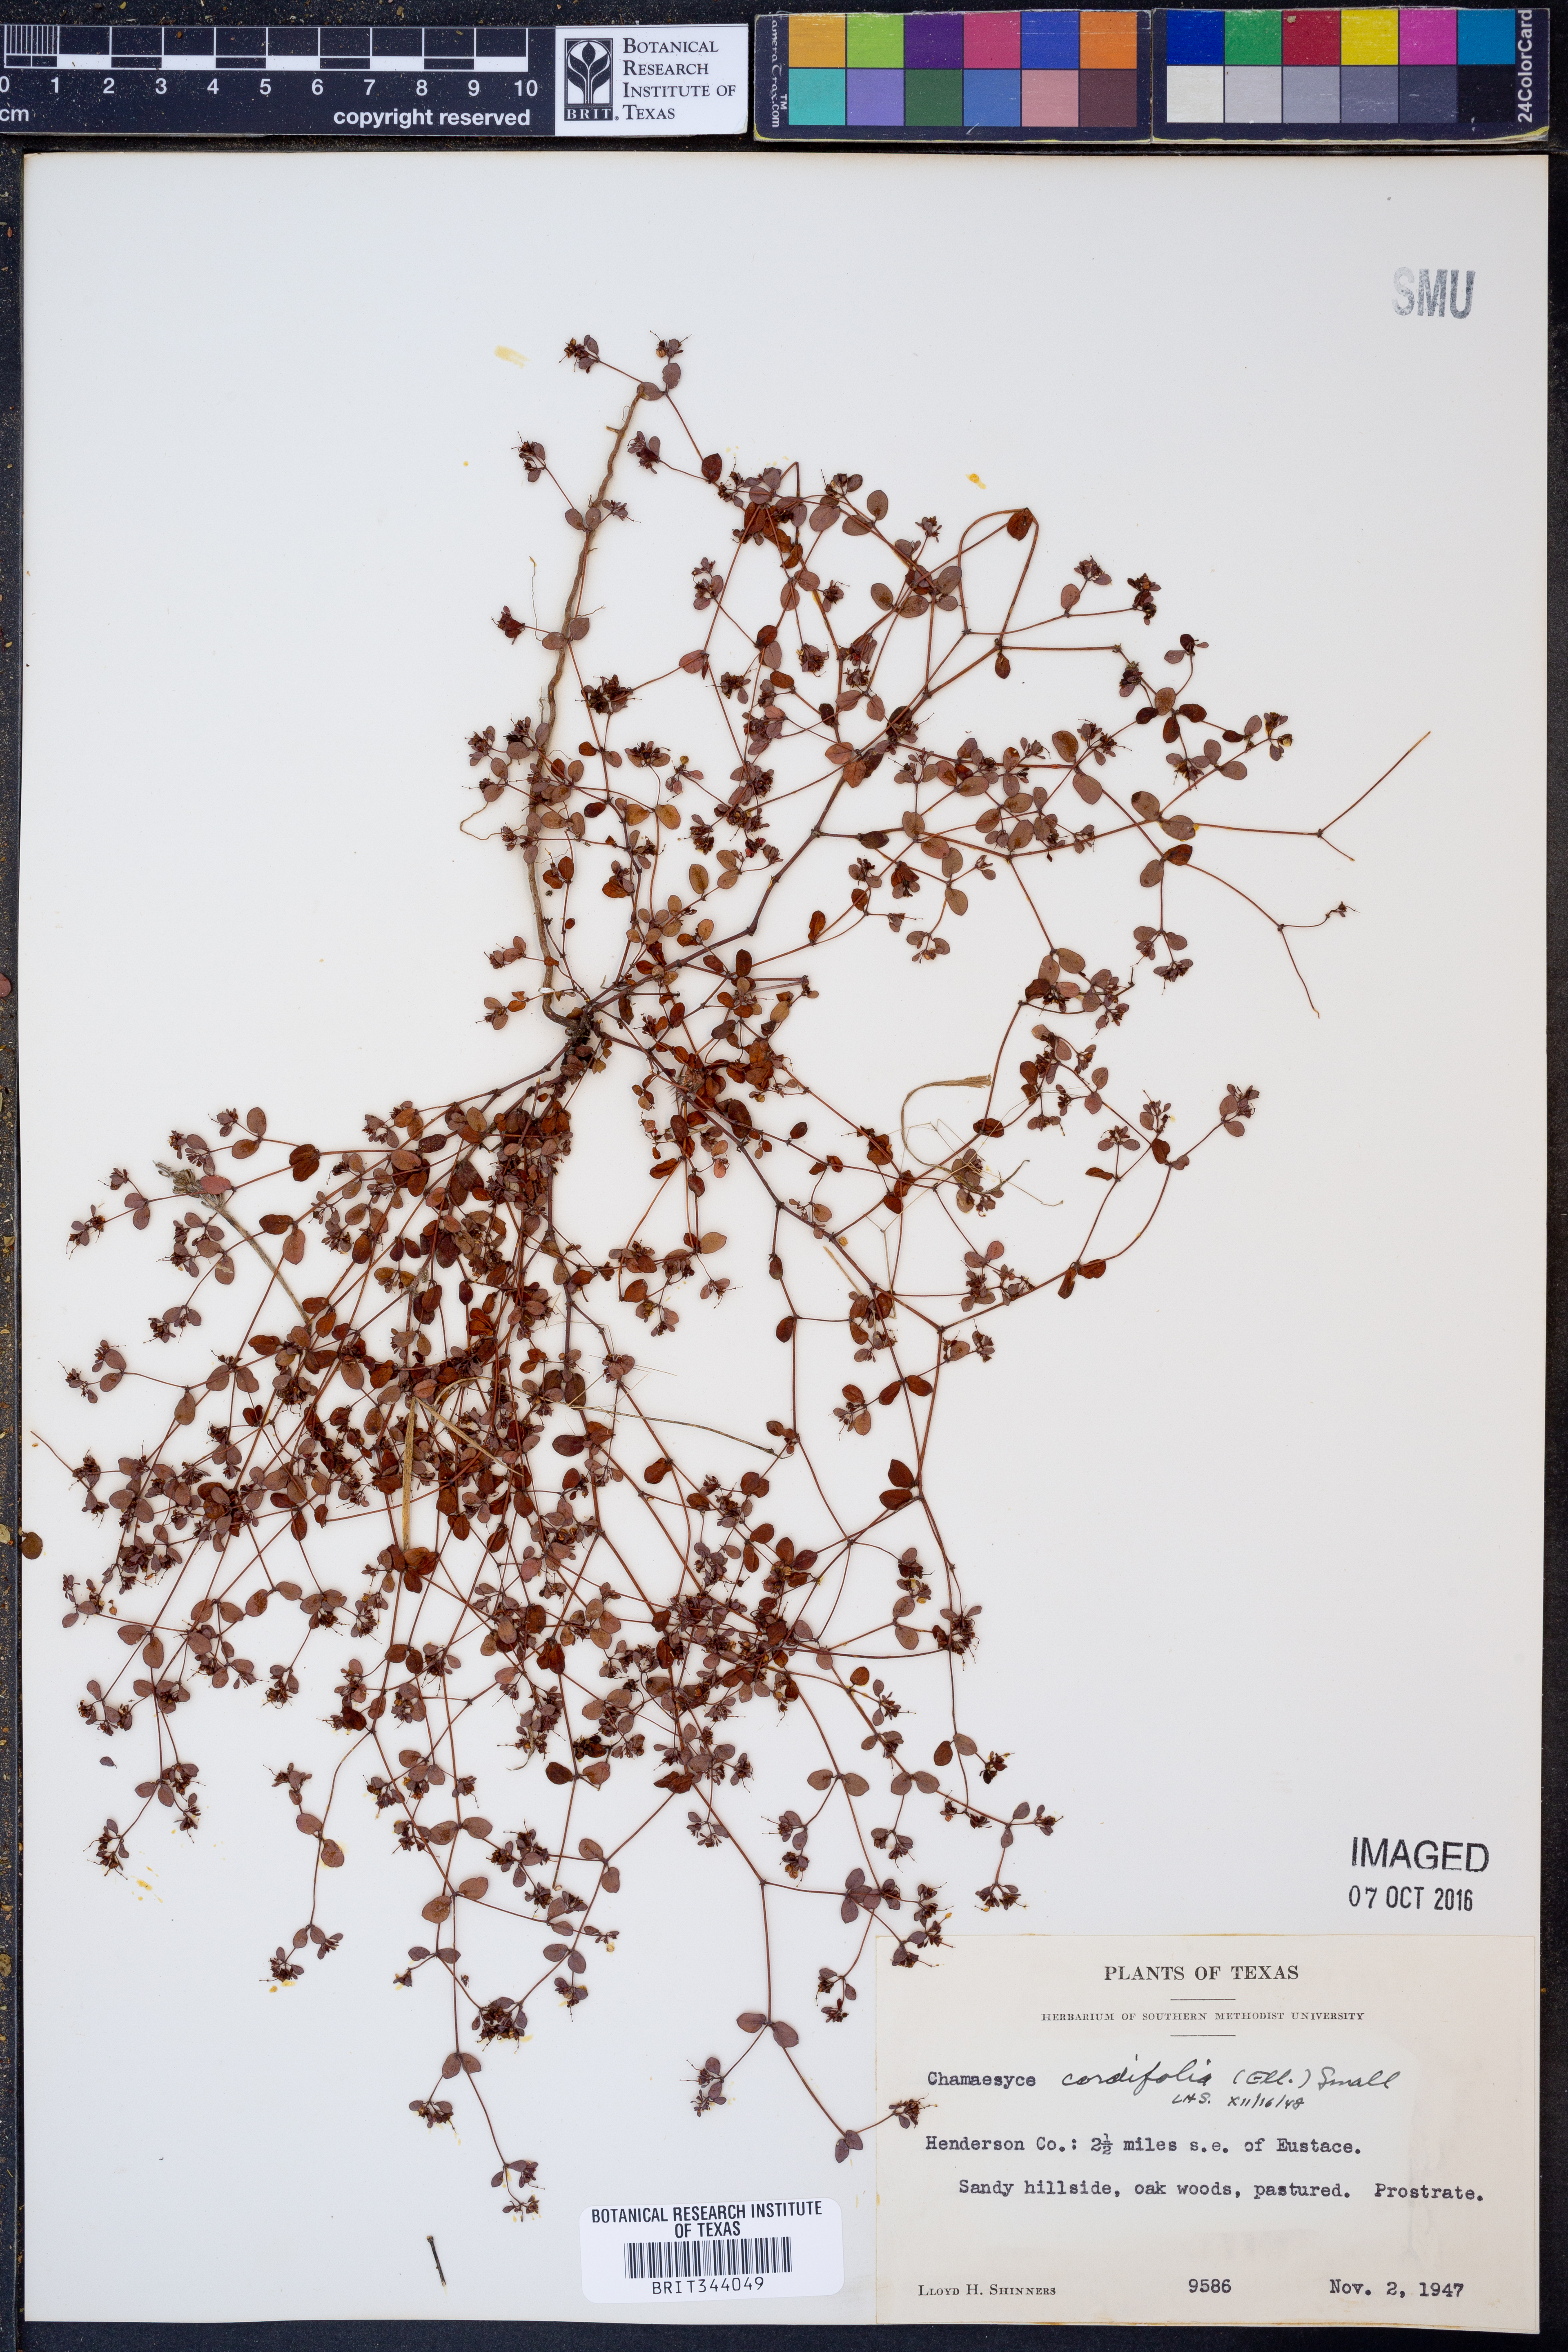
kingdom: Plantae
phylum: Tracheophyta
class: Magnoliopsida
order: Malpighiales
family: Euphorbiaceae
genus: Euphorbia
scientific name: Euphorbia cordifolia
